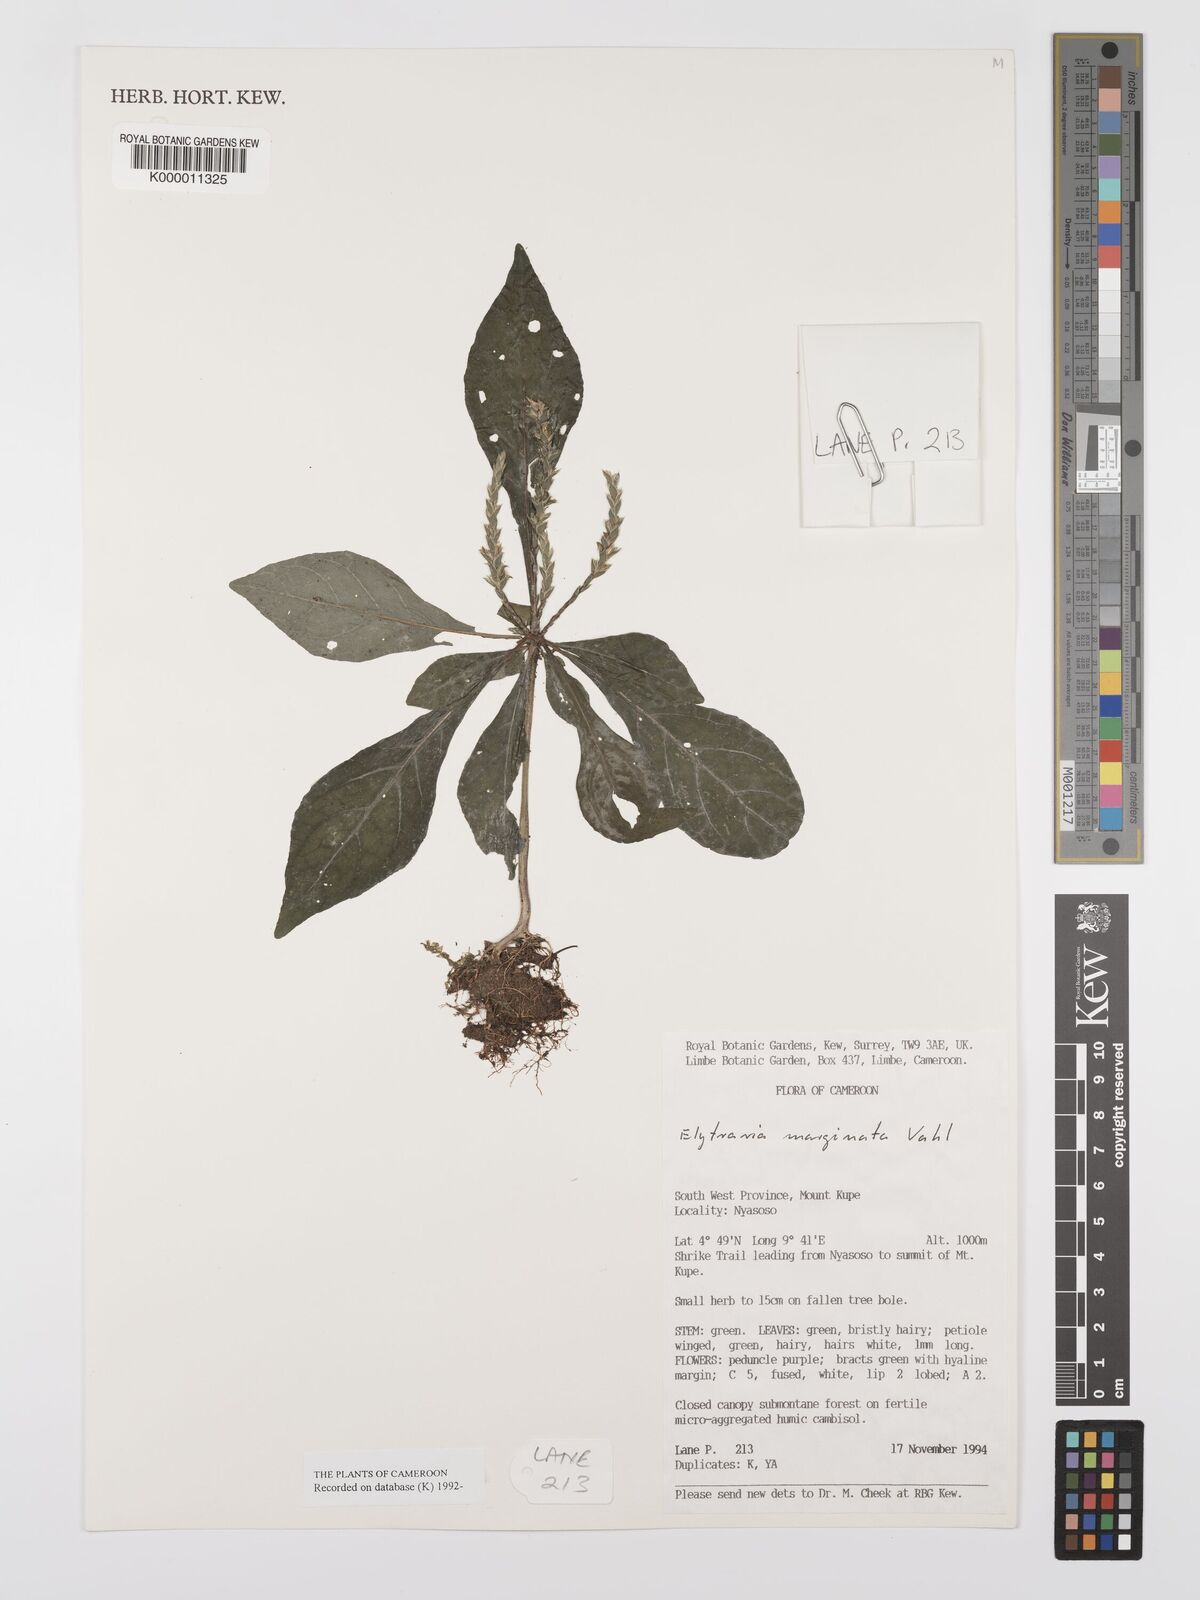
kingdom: Plantae
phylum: Tracheophyta
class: Magnoliopsida
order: Lamiales
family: Acanthaceae
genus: Elytraria
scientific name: Elytraria marginata
